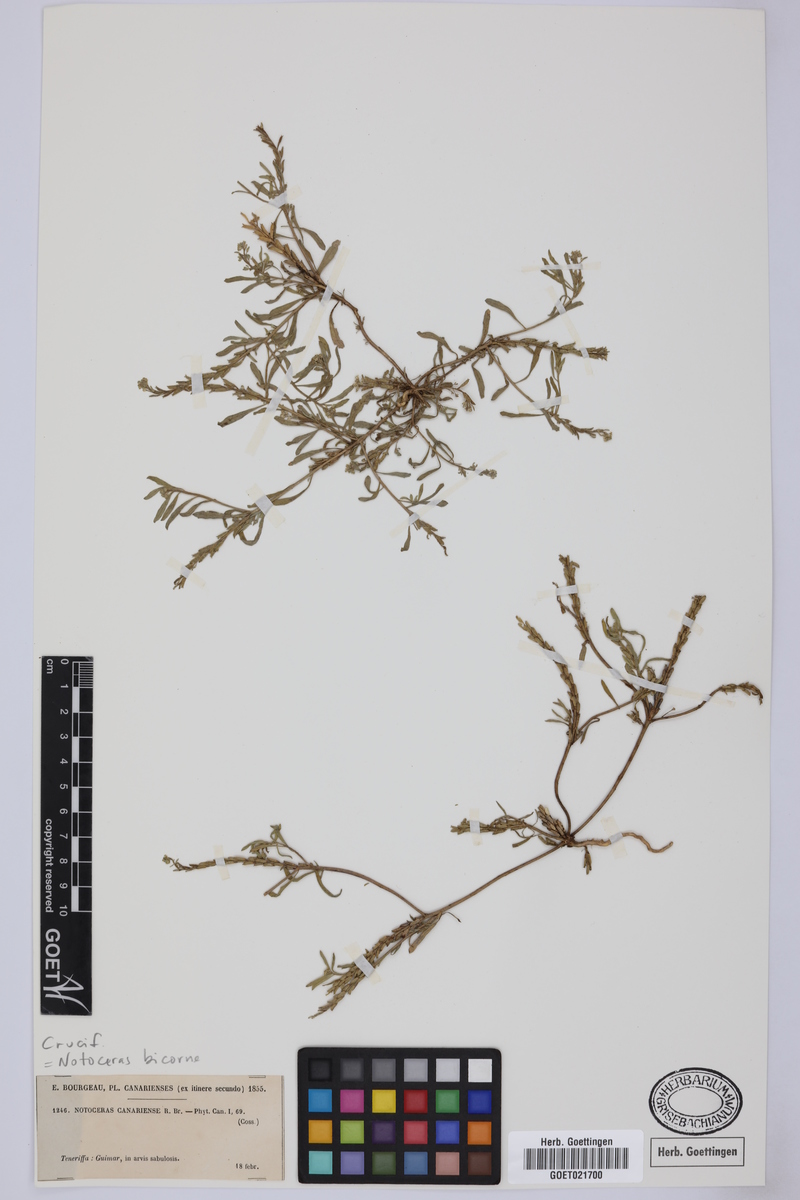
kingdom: Plantae
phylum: Tracheophyta
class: Magnoliopsida
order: Brassicales
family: Brassicaceae
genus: Notoceras
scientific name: Notoceras bicorne
